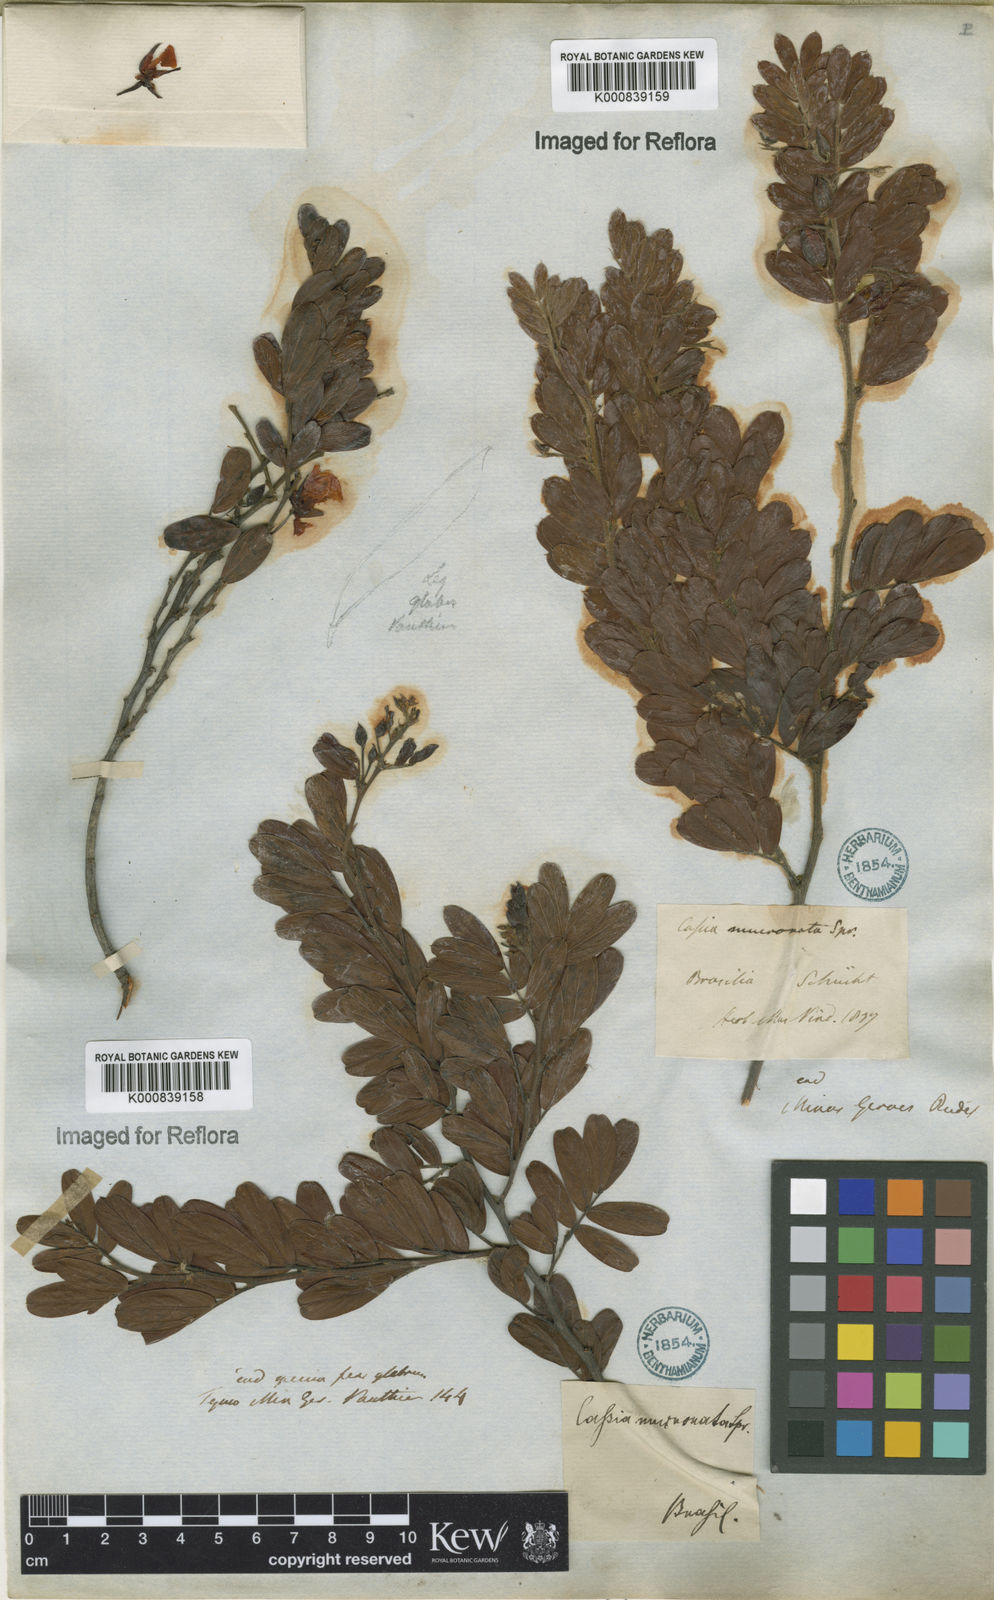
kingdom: Plantae
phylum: Tracheophyta
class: Magnoliopsida
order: Fabales
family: Fabaceae
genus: Chamaecrista
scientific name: Chamaecrista mucronata
